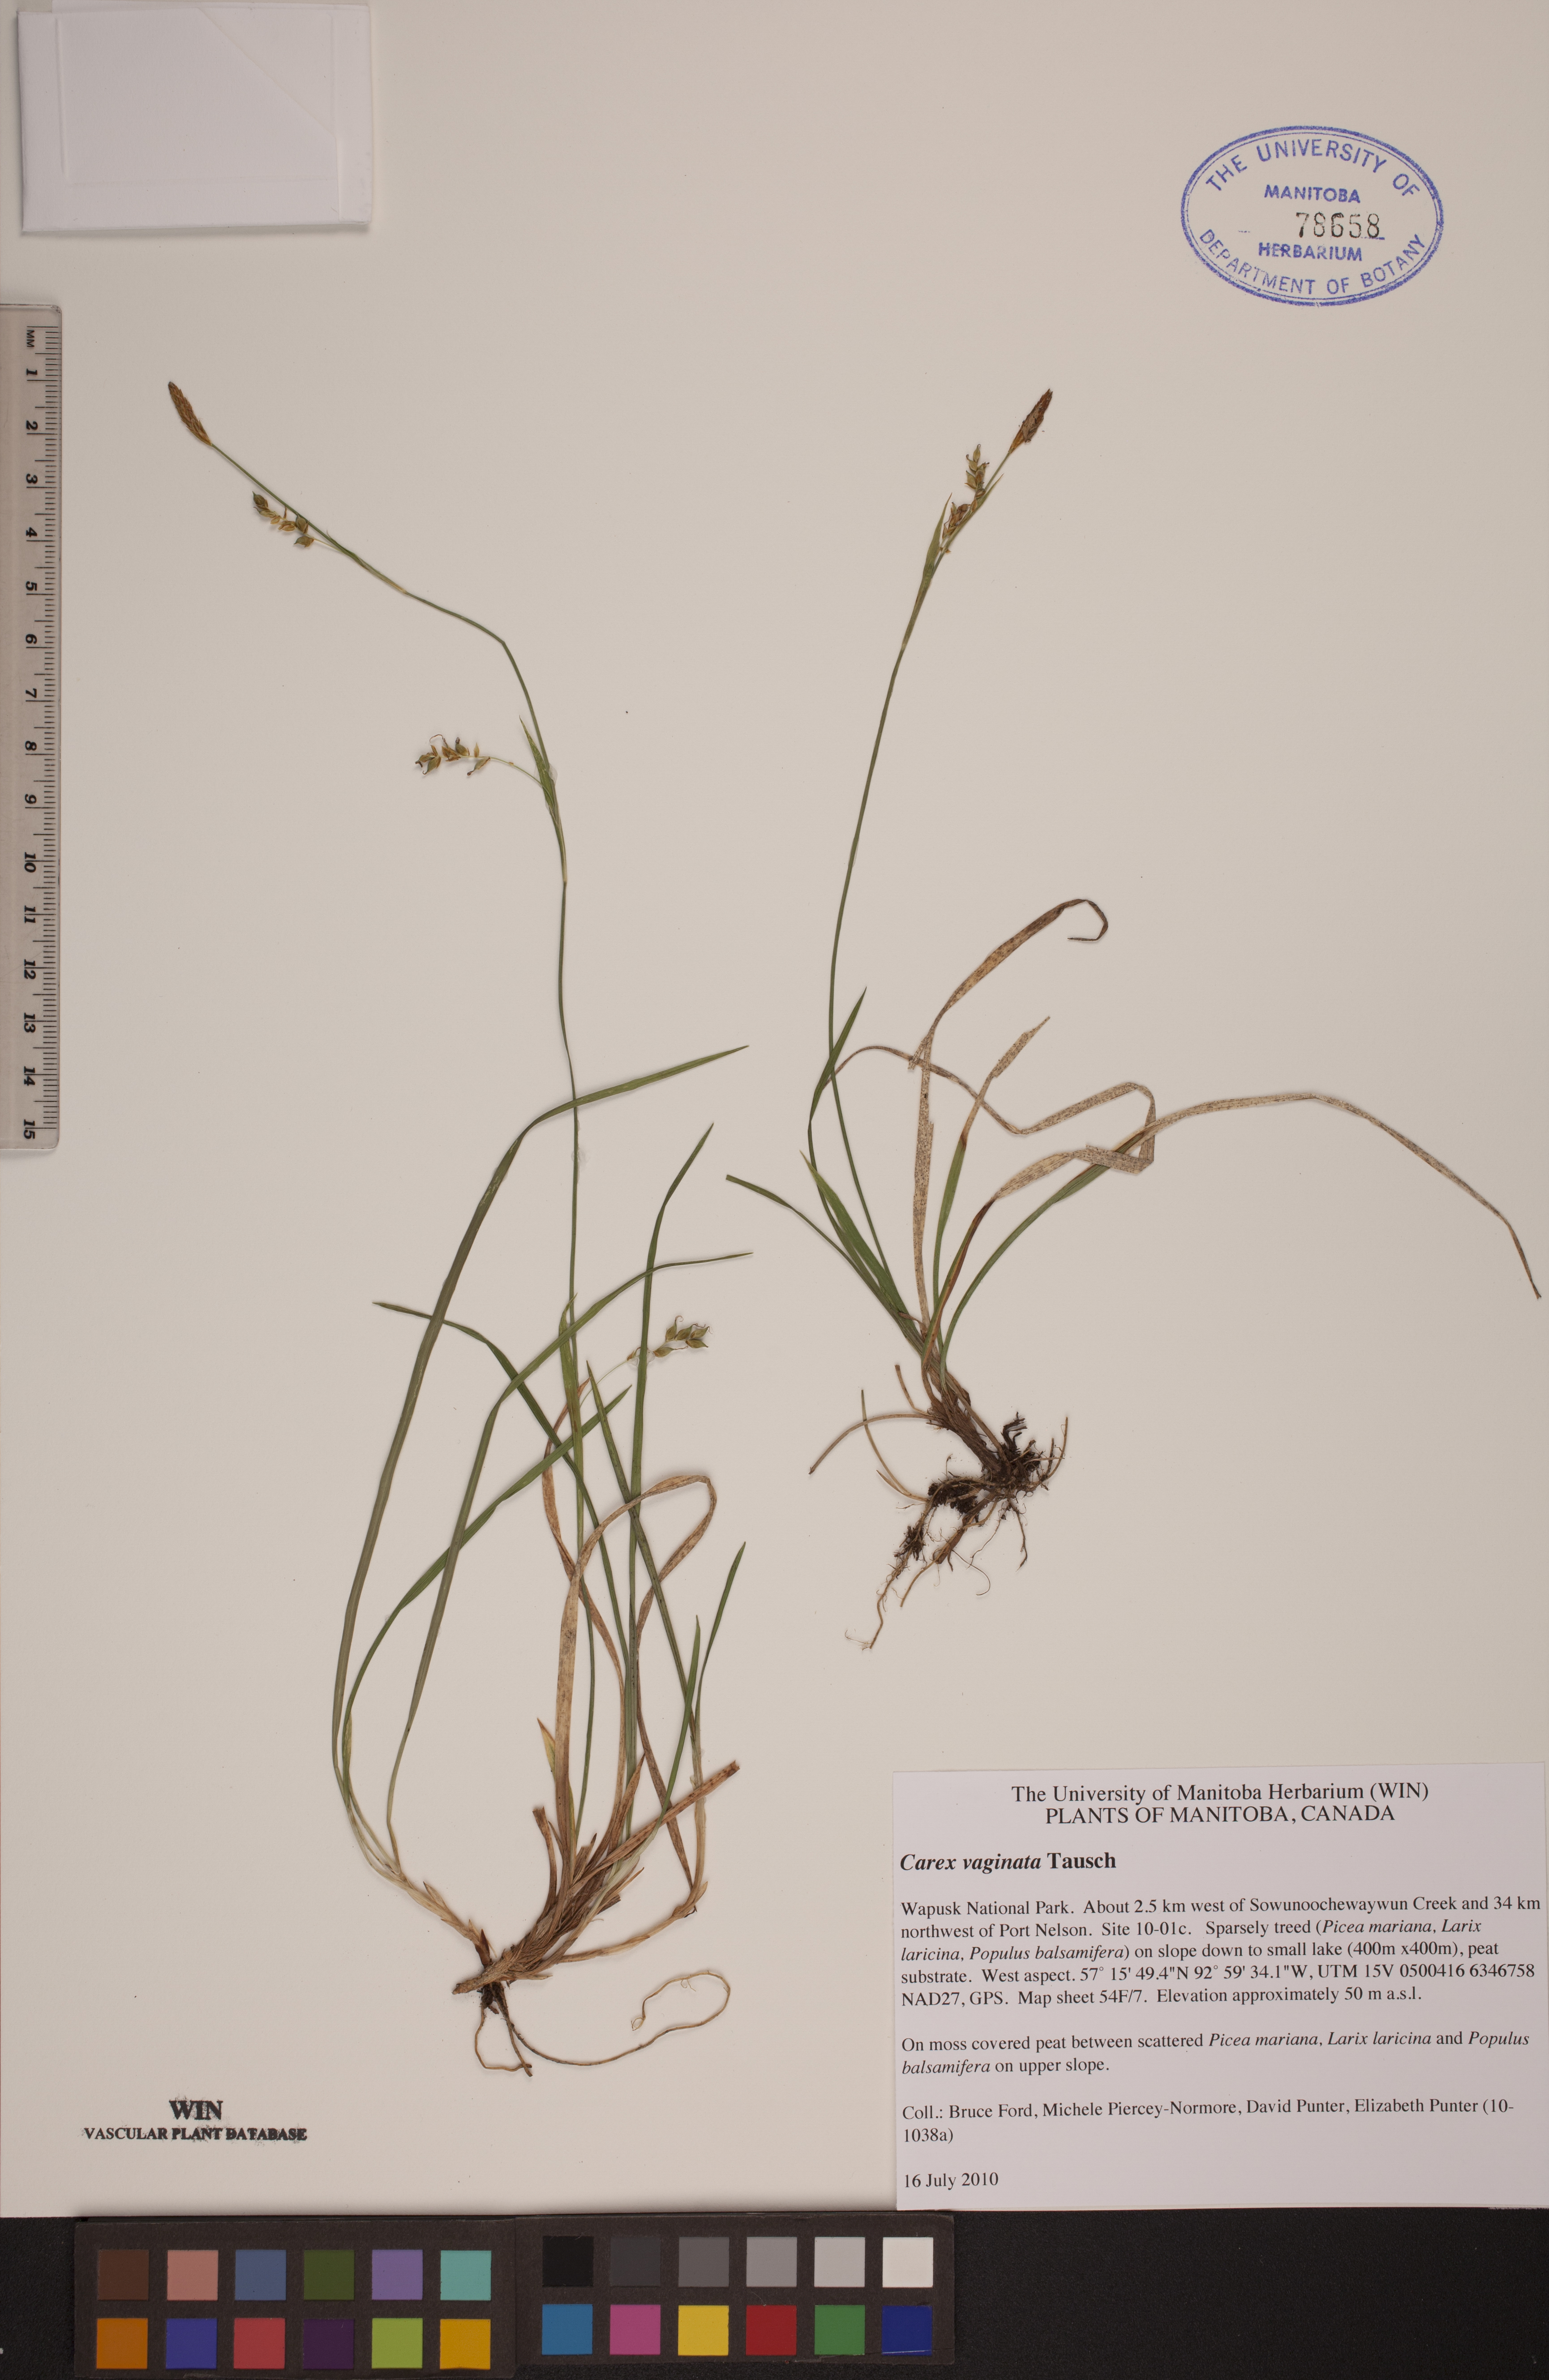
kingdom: Plantae
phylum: Tracheophyta
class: Liliopsida
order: Poales
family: Cyperaceae
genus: Carex
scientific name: Carex vaginata
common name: Sheathed sedge
